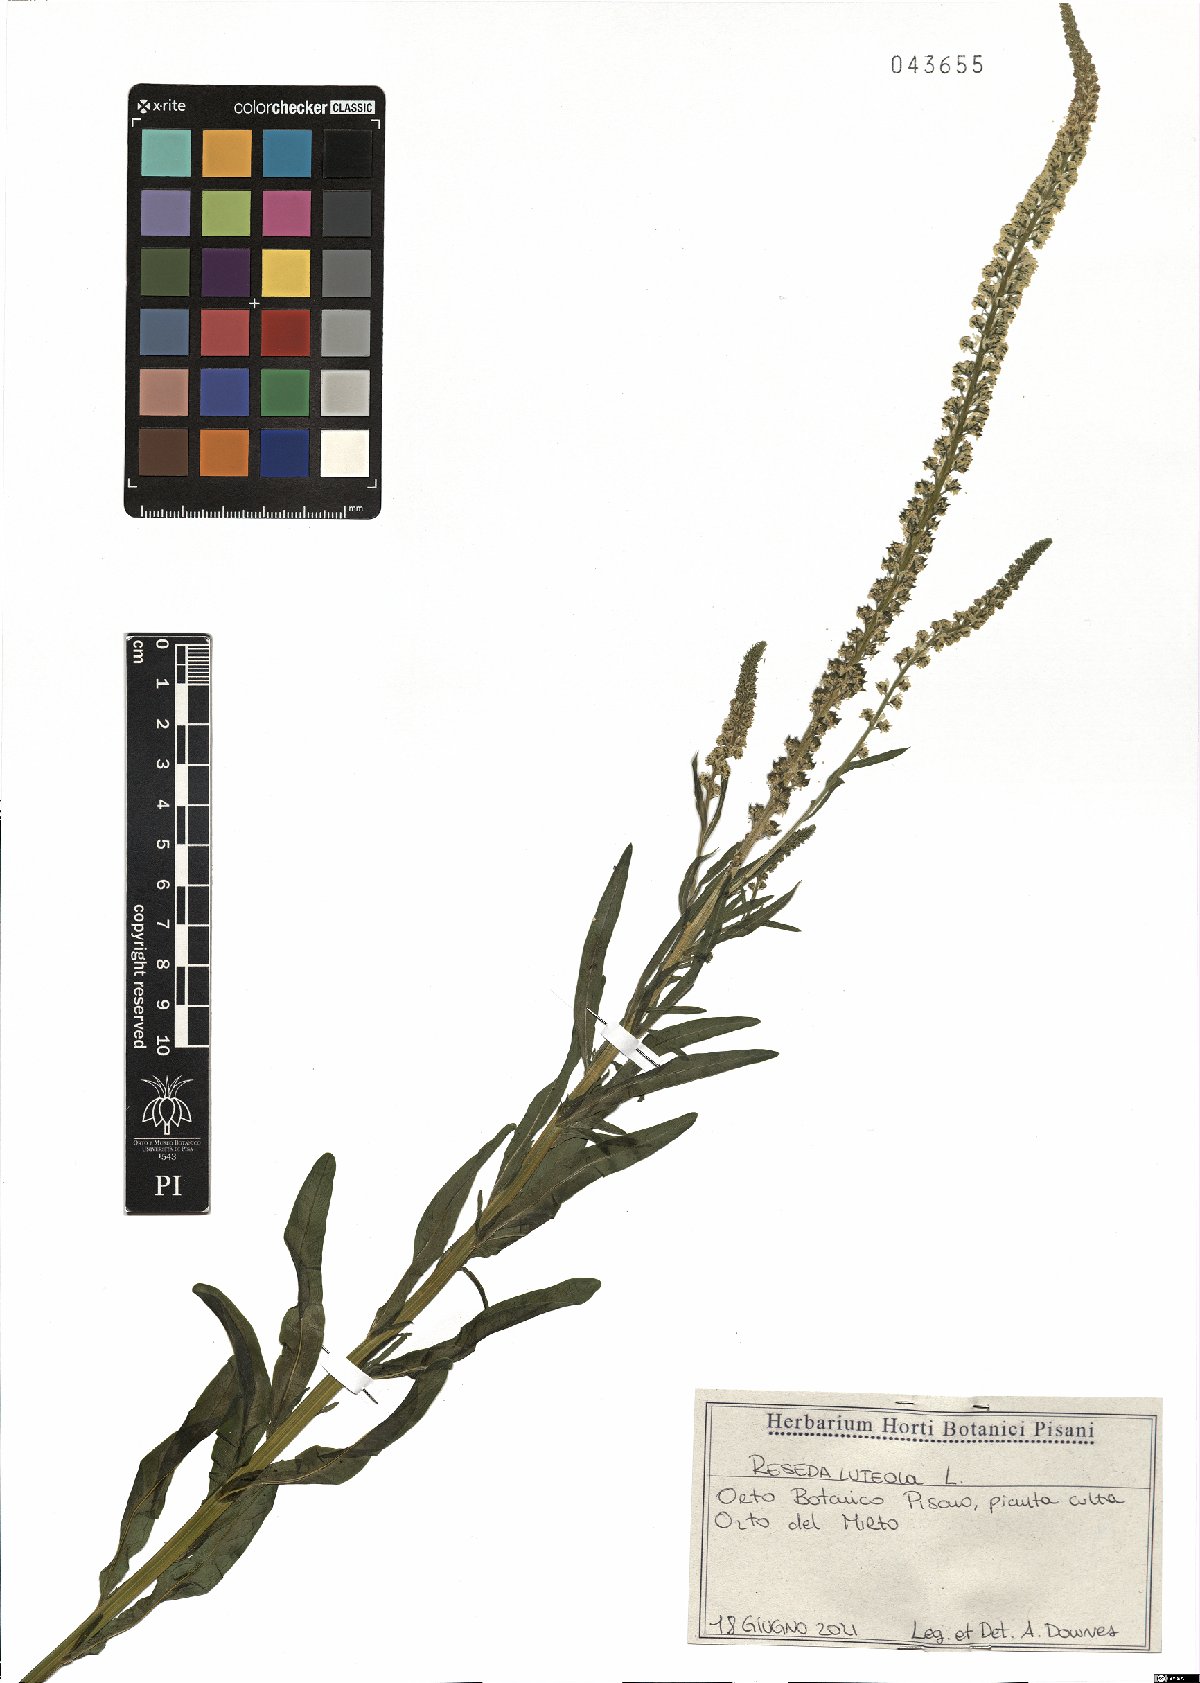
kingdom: Plantae
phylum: Tracheophyta
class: Magnoliopsida
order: Brassicales
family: Resedaceae
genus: Reseda
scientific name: Reseda luteola
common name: Weld
